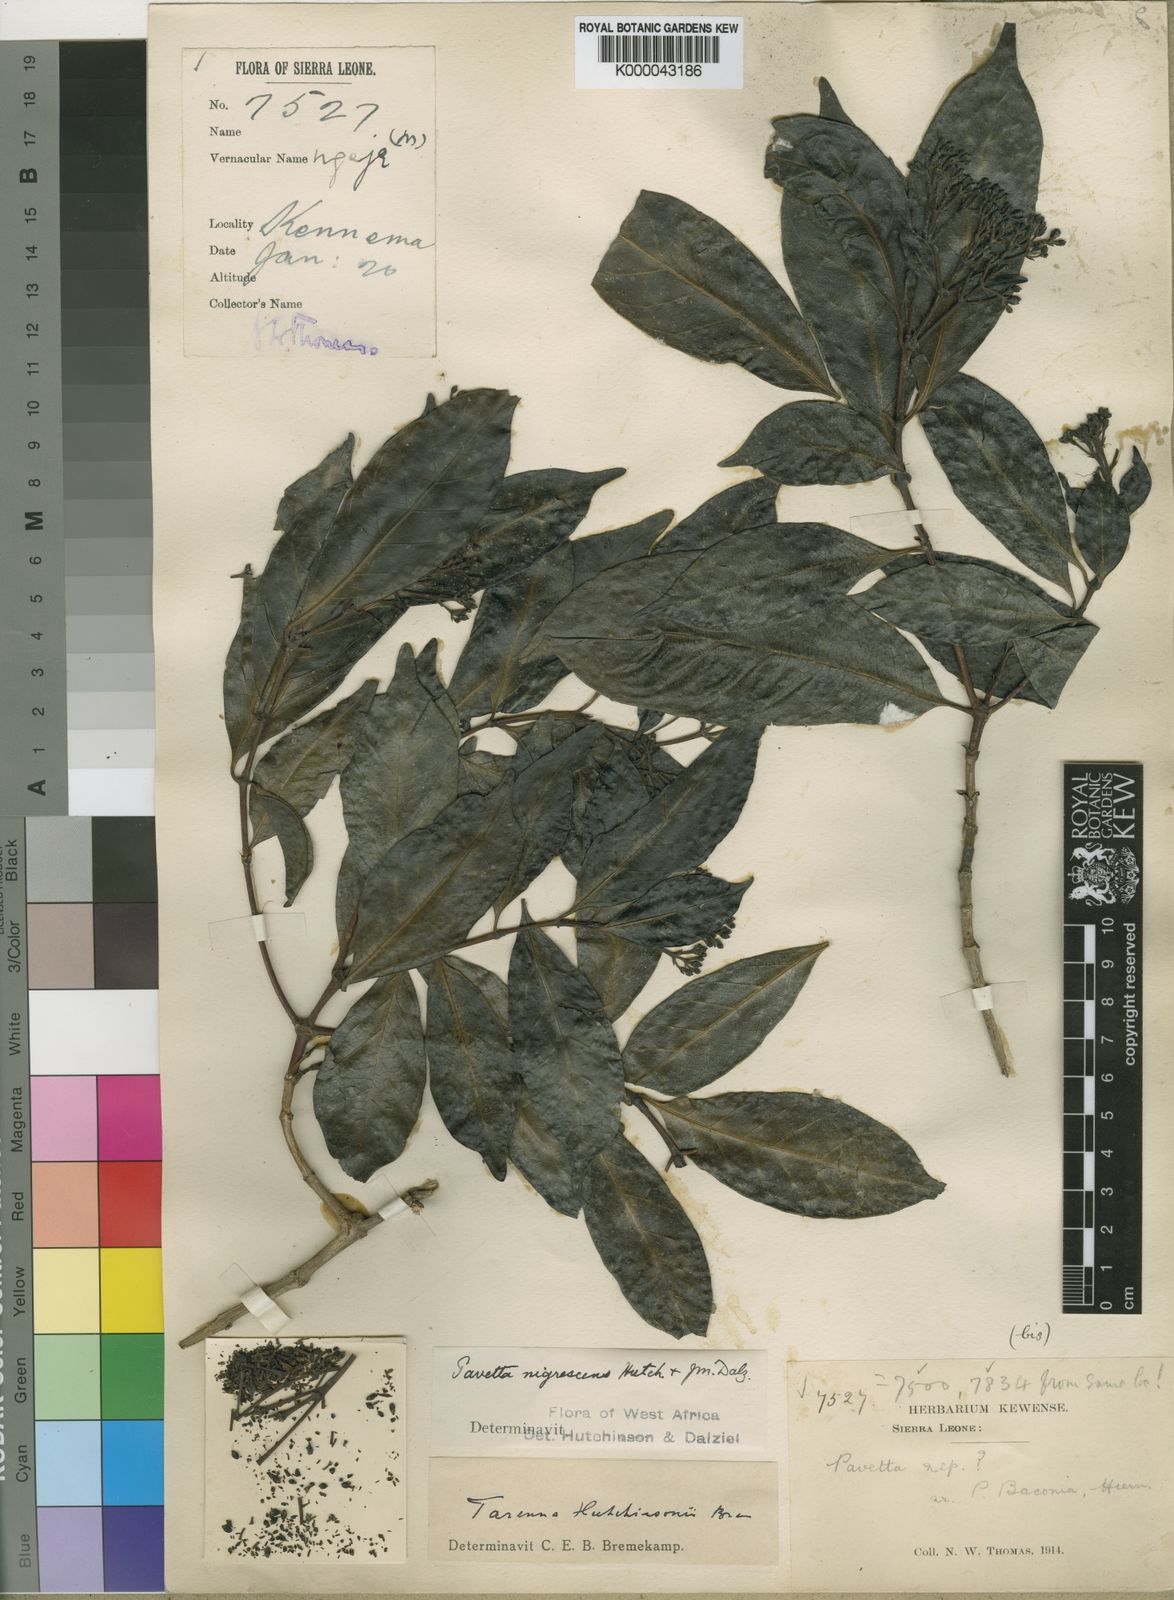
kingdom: Plantae
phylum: Tracheophyta
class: Magnoliopsida
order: Gentianales
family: Rubiaceae
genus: Tarenna
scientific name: Tarenna hutchinsonii
